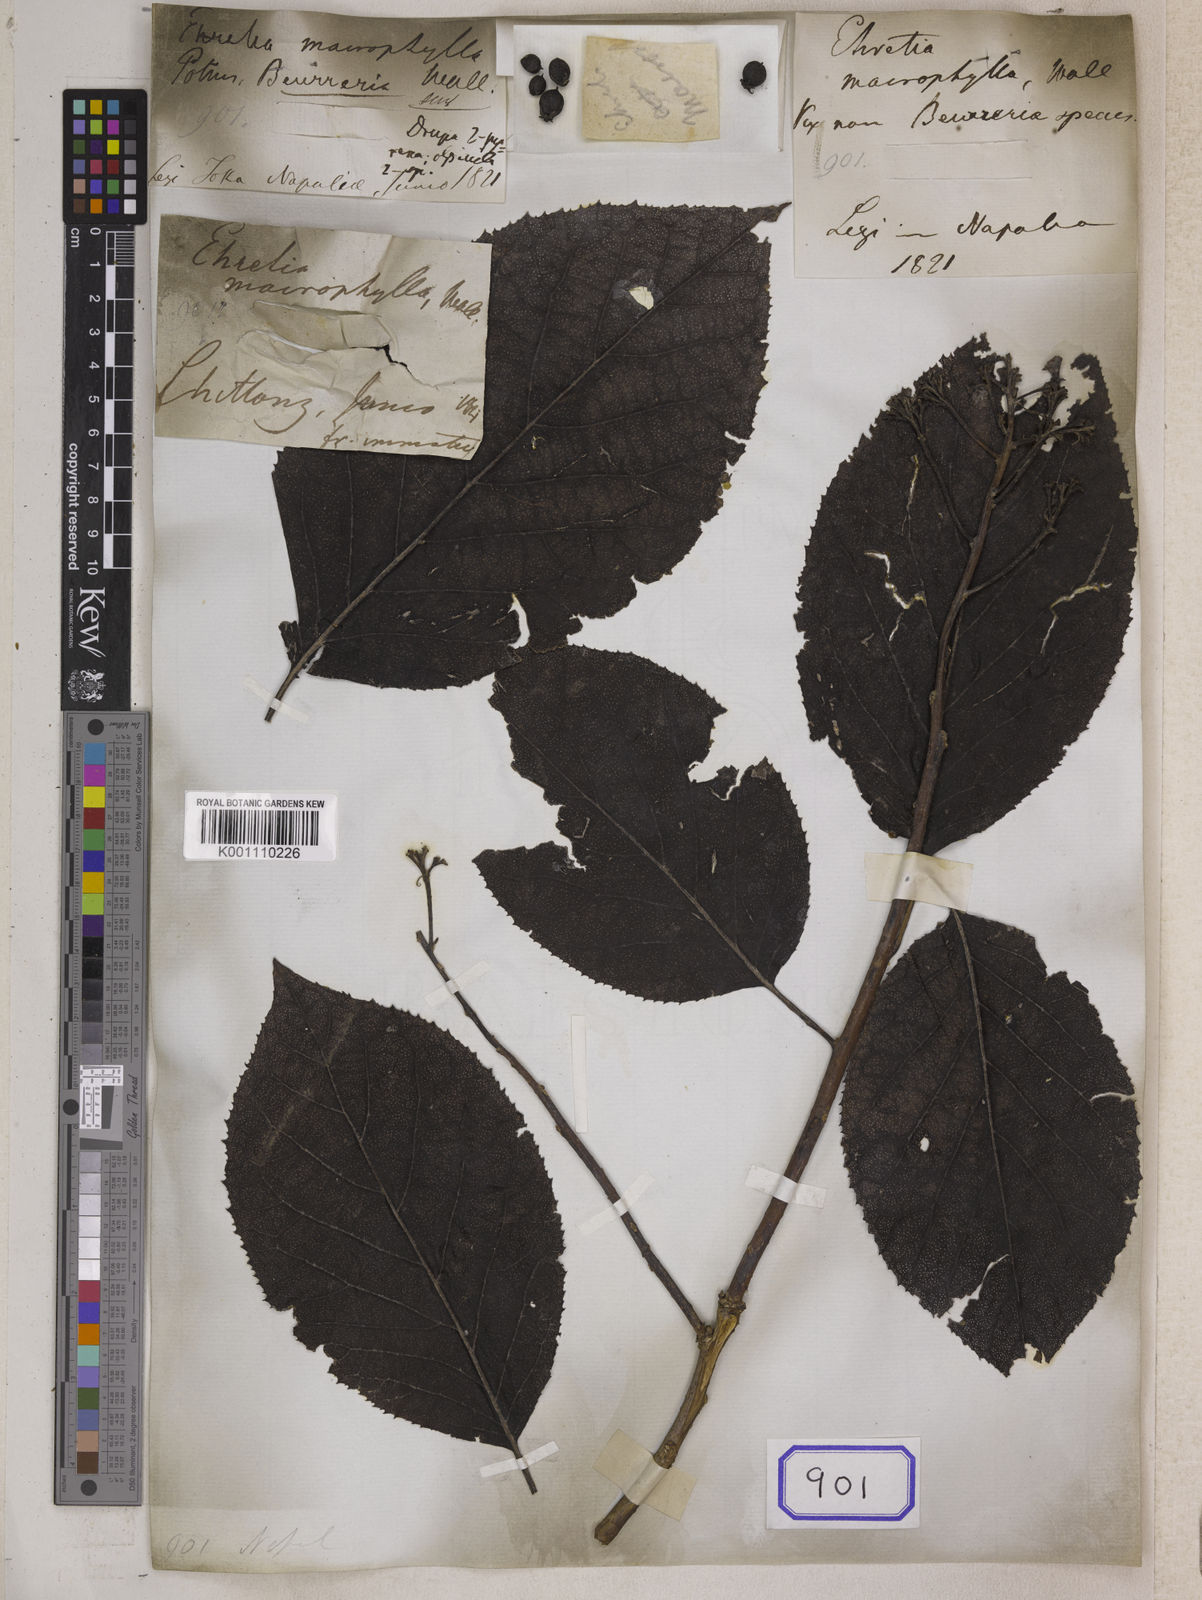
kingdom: Plantae
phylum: Tracheophyta
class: Magnoliopsida
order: Boraginales
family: Ehretiaceae
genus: Ehretia
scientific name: Ehretia macrophylla
